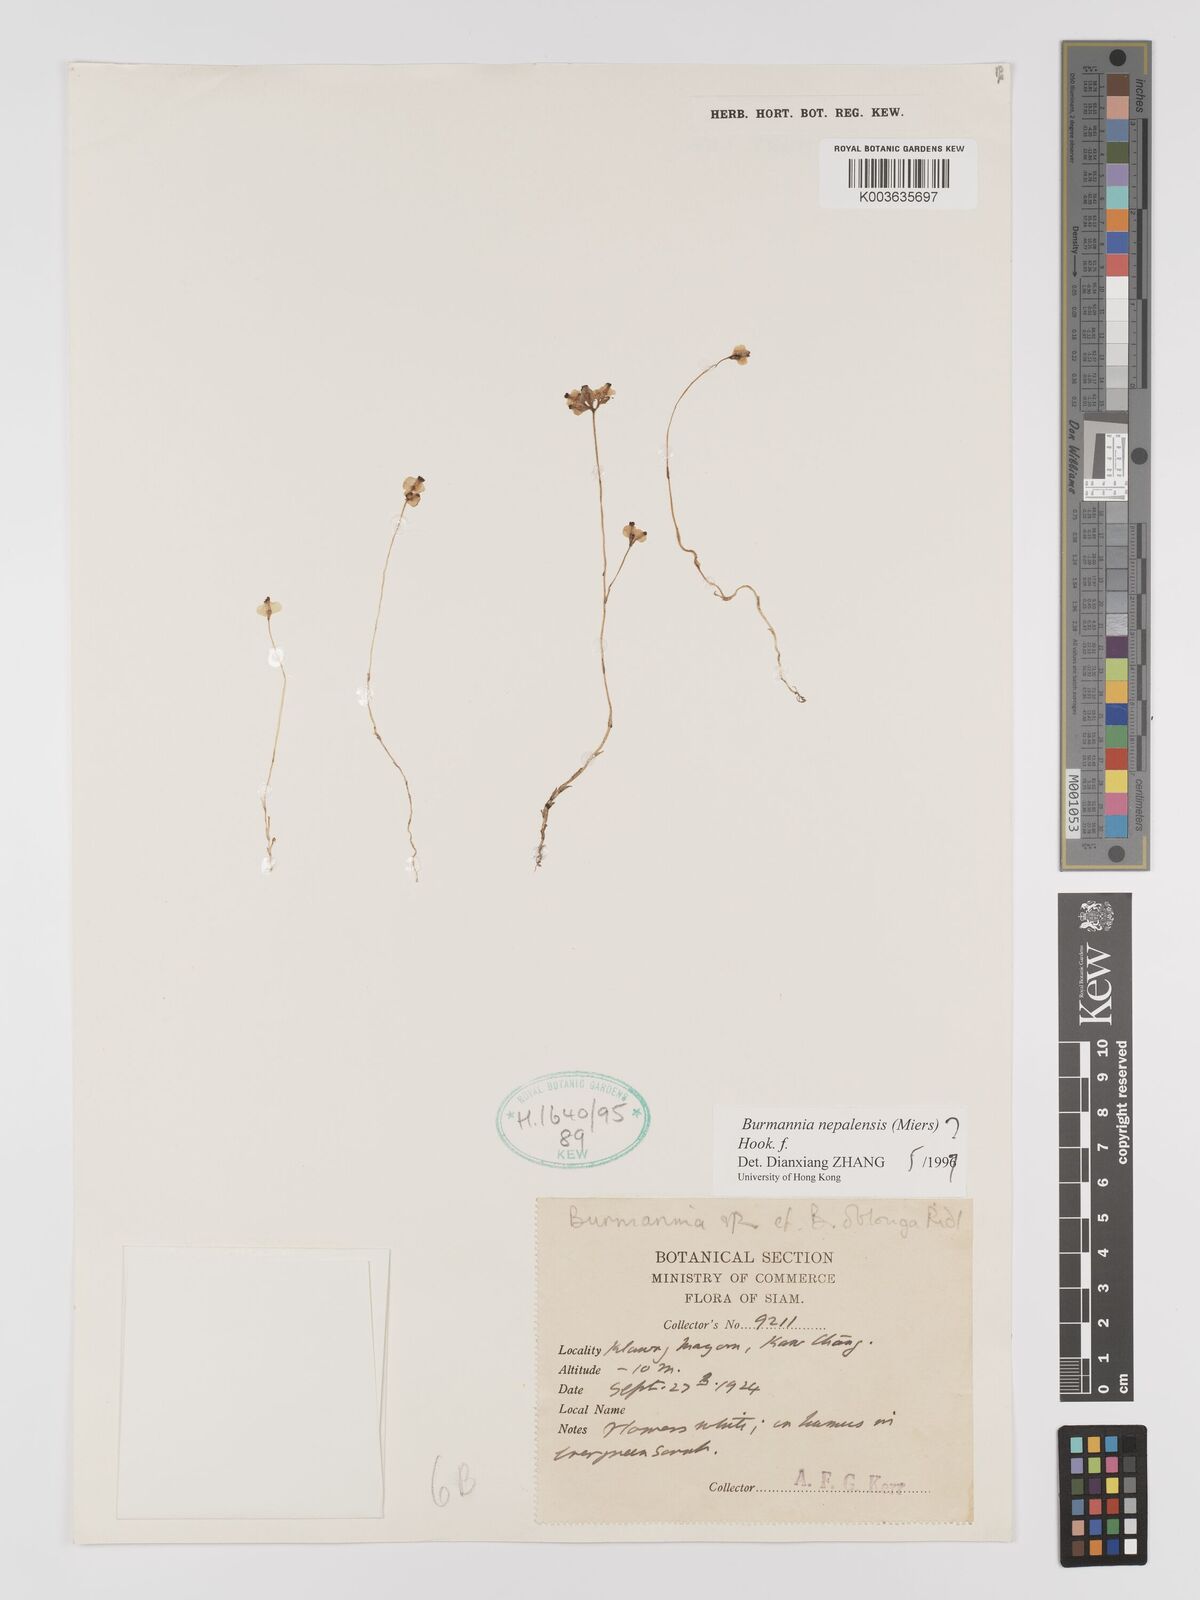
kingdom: Plantae
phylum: Tracheophyta
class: Liliopsida
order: Dioscoreales
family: Burmanniaceae
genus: Burmannia
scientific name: Burmannia nepalensis
